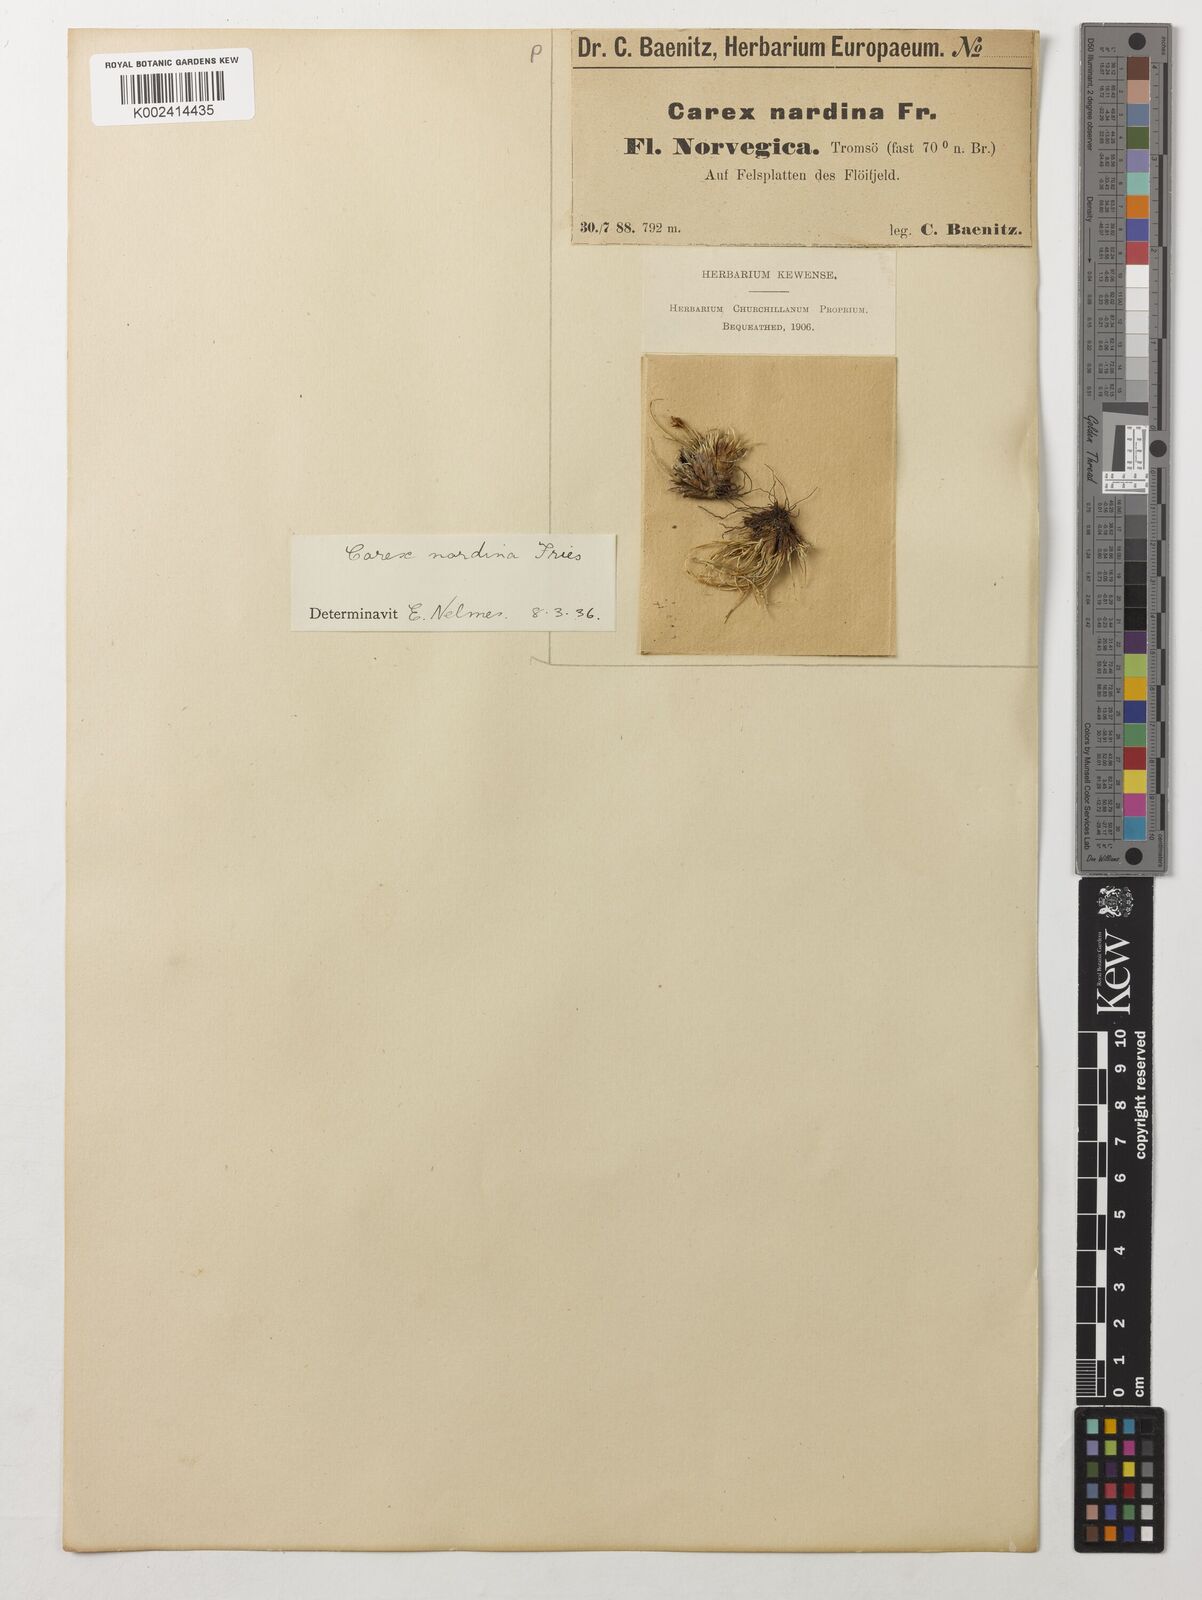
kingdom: Plantae
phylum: Tracheophyta
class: Liliopsida
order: Poales
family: Cyperaceae
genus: Carex
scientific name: Carex nardina
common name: Nard sedge
